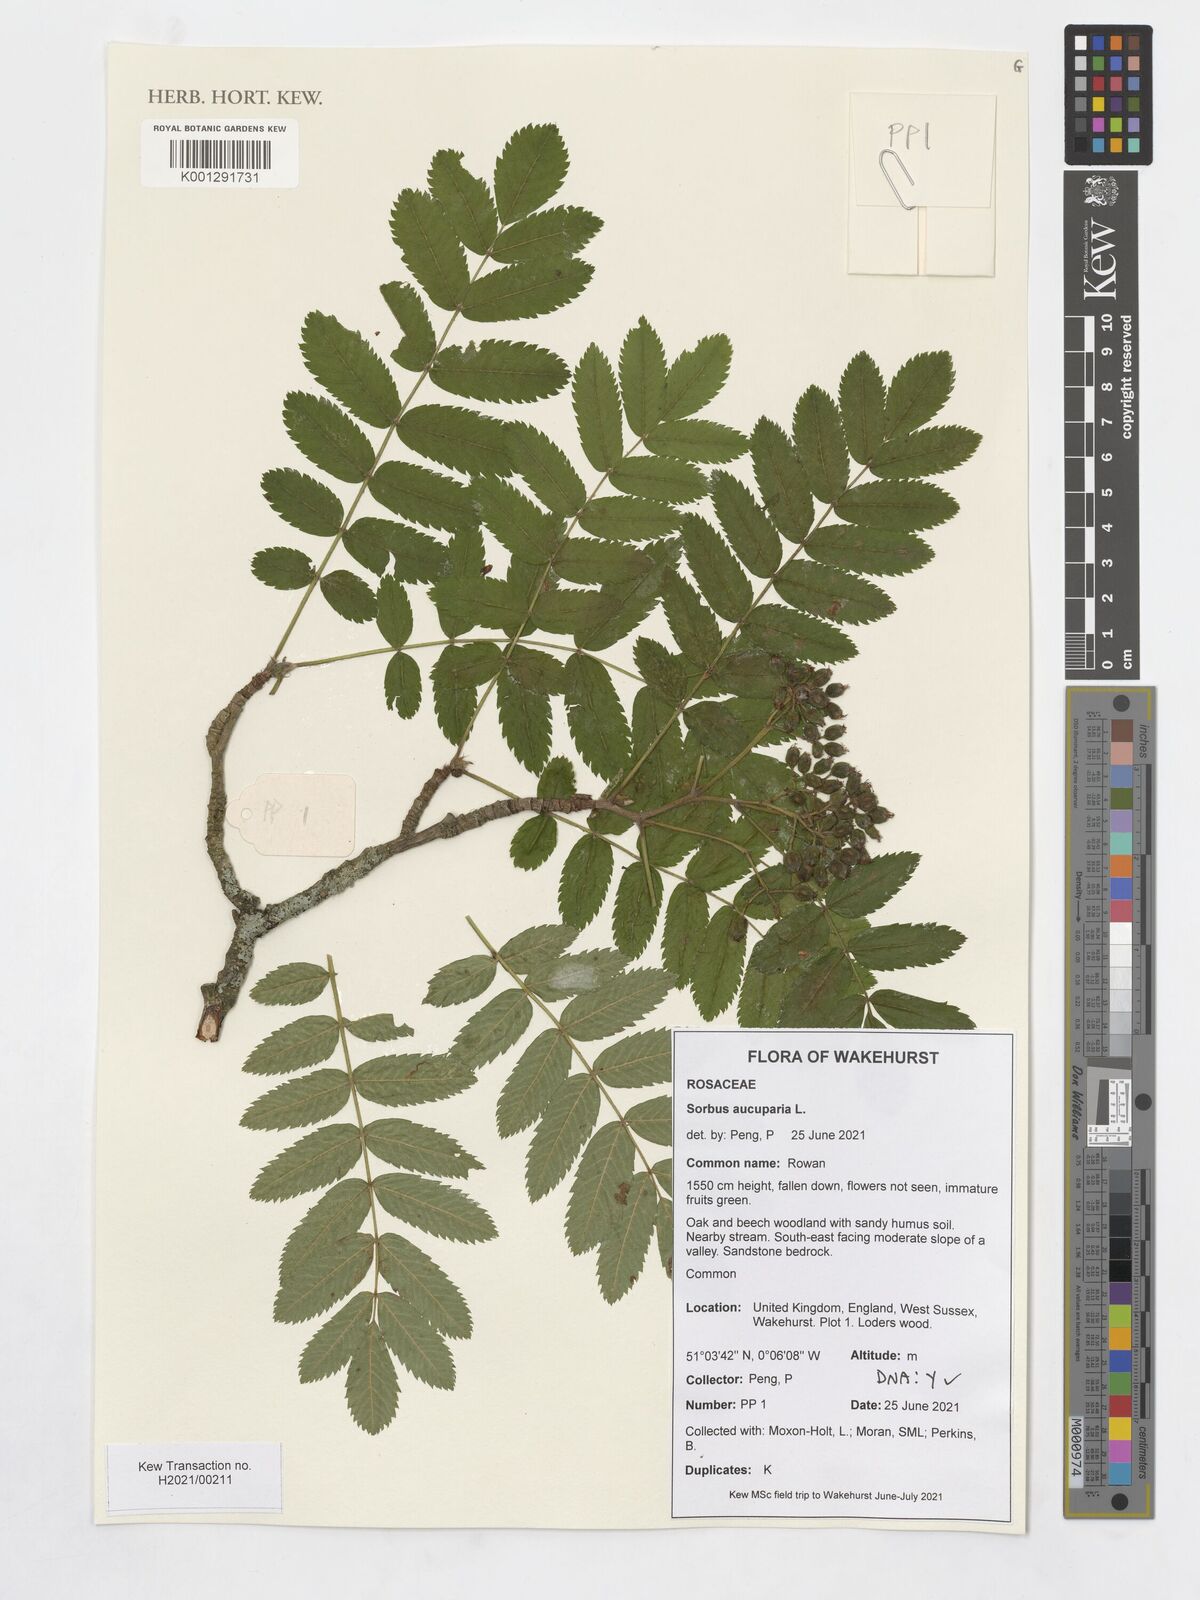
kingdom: Plantae
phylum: Tracheophyta
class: Magnoliopsida
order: Rosales
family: Rosaceae
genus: Sorbus
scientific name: Sorbus aucuparia
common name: Rowan
